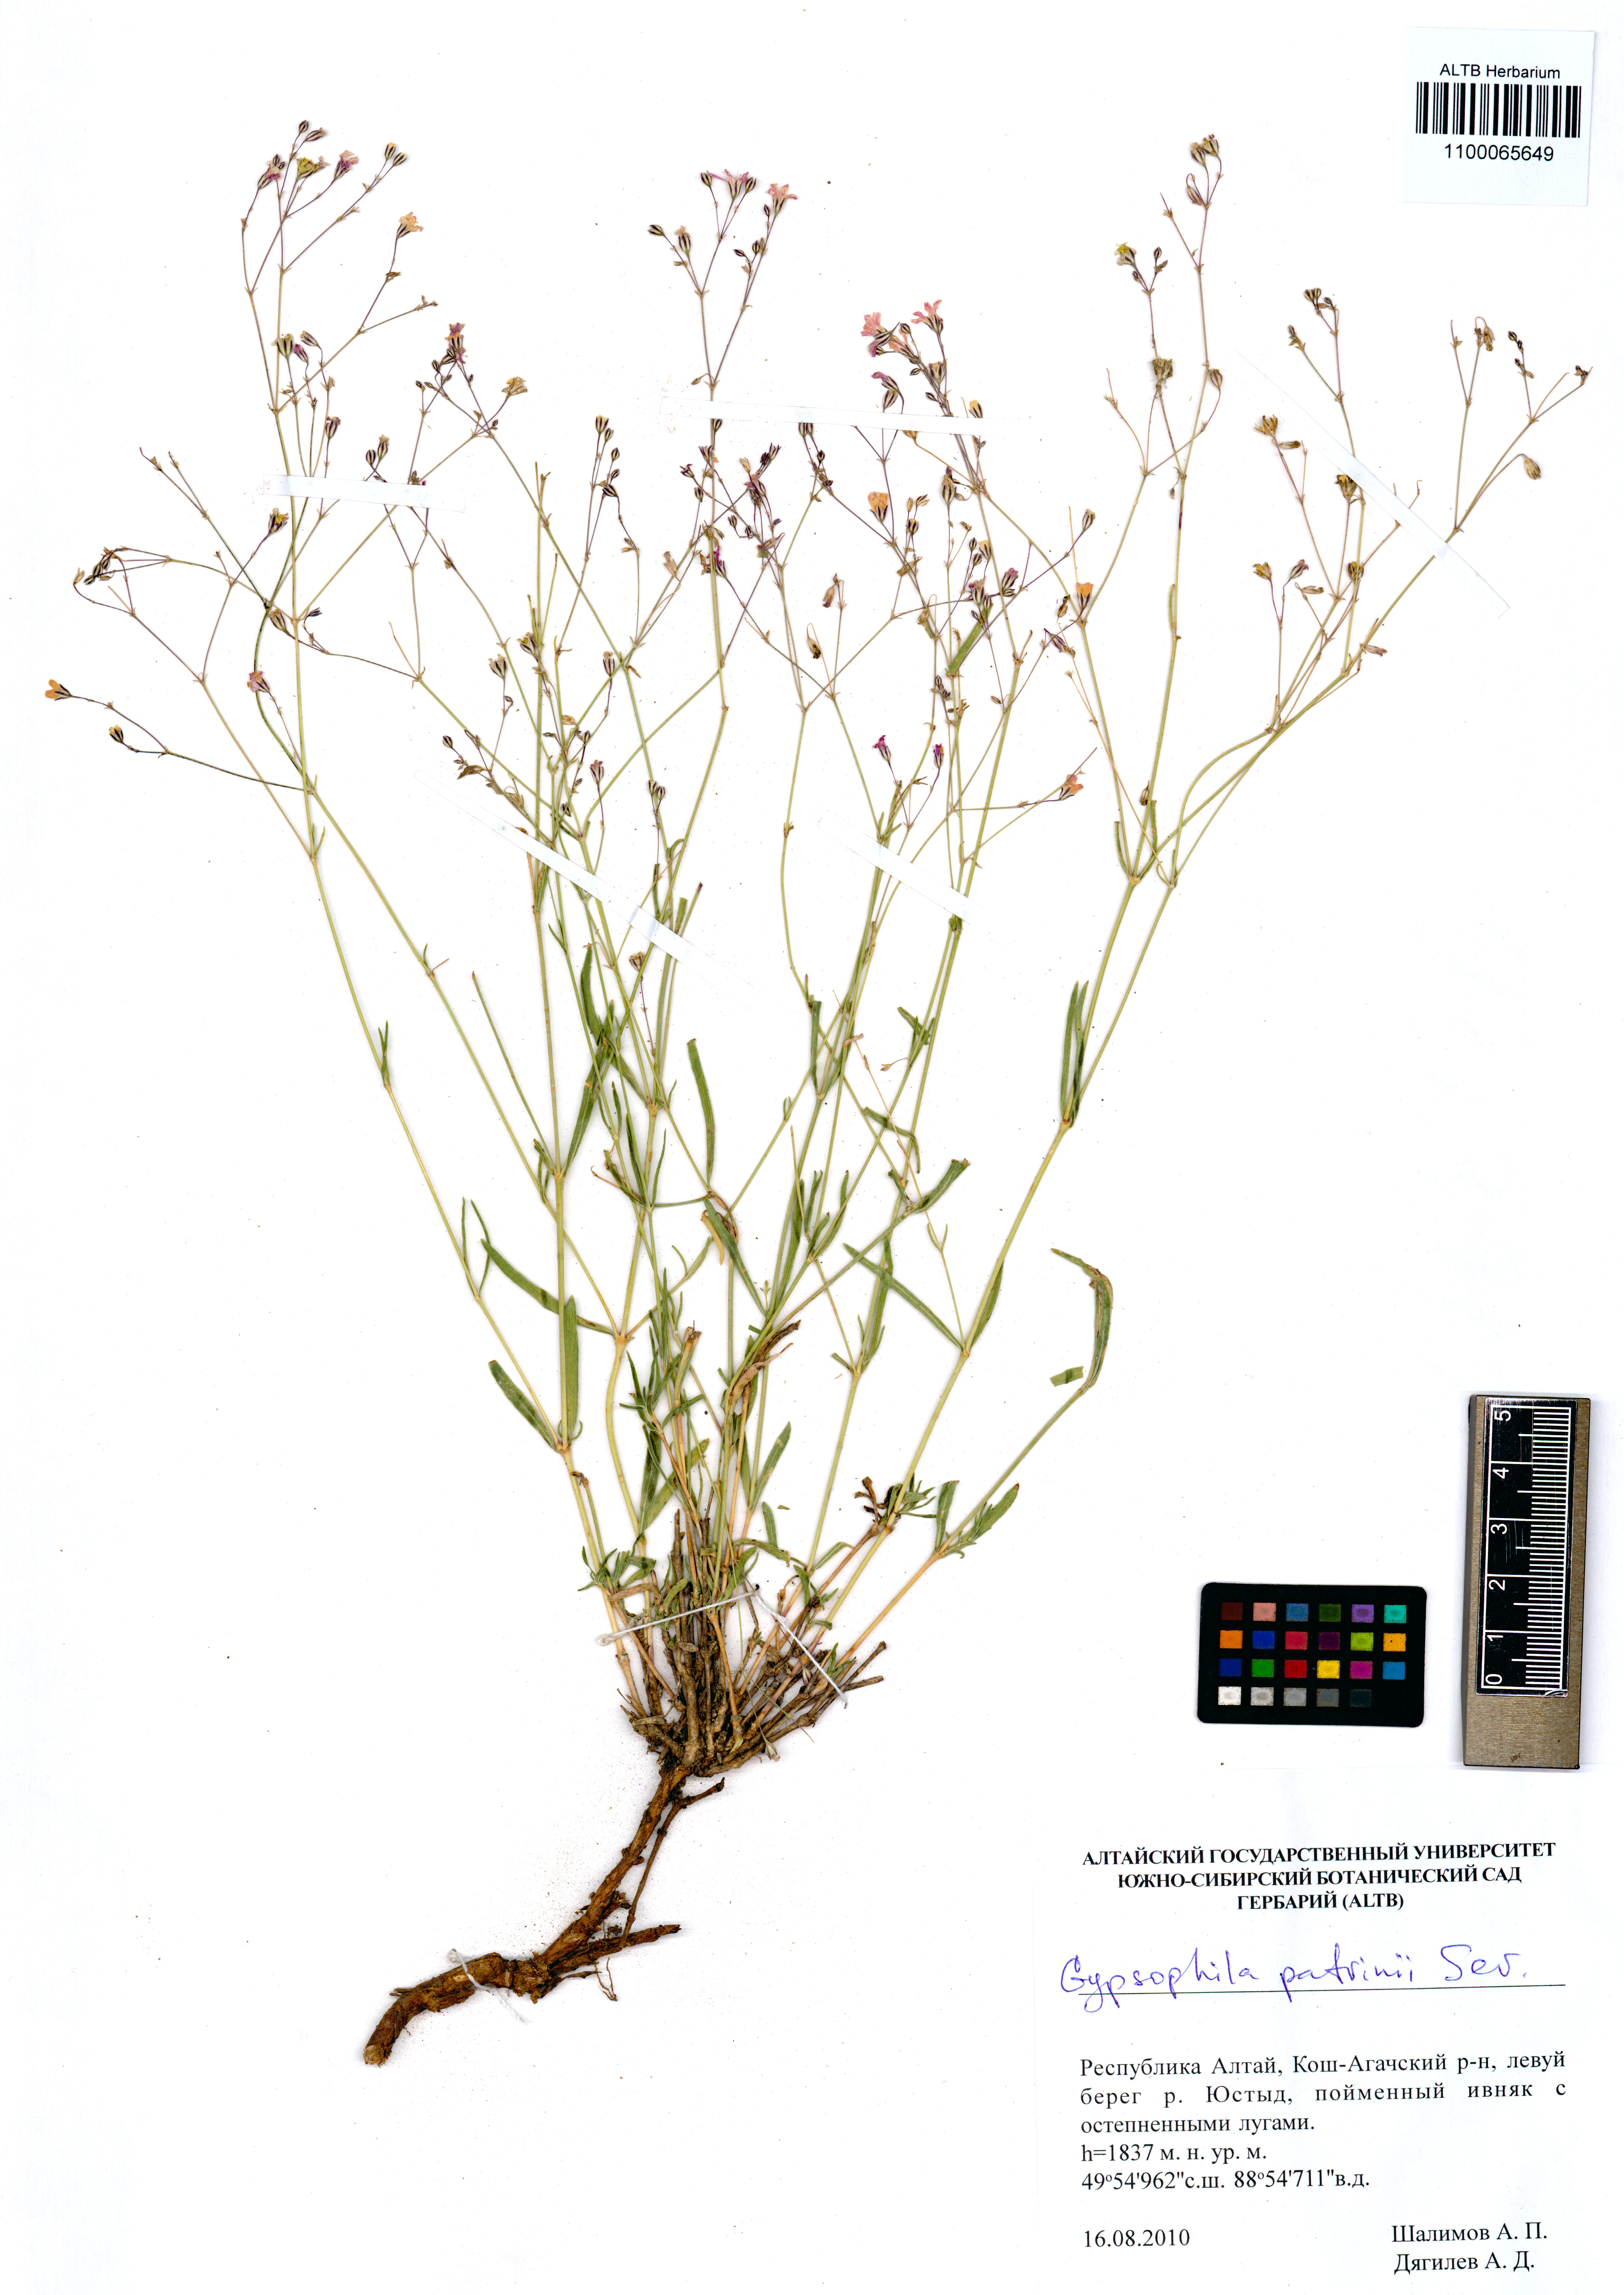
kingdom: Plantae
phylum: Tracheophyta
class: Magnoliopsida
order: Caryophyllales
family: Caryophyllaceae
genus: Gypsophila
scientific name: Gypsophila patrinii
